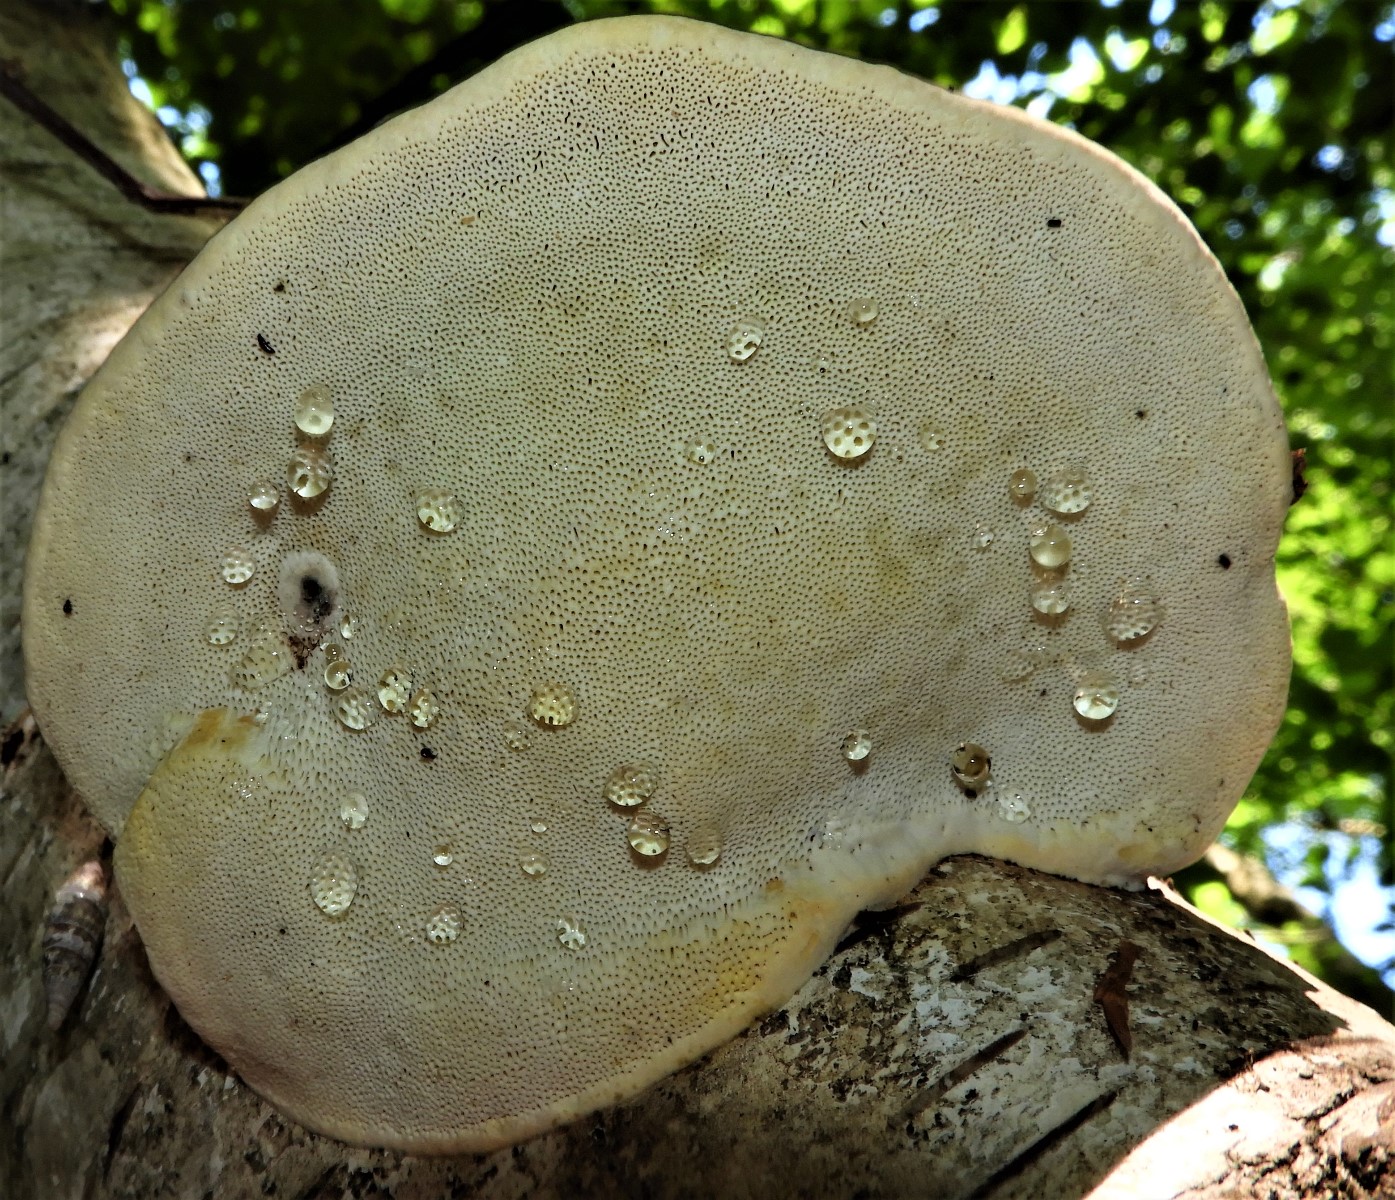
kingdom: Fungi
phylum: Basidiomycota
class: Agaricomycetes
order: Polyporales
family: Fomitopsidaceae
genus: Fomitopsis
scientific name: Fomitopsis pinicola
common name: randbæltet hovporesvamp
